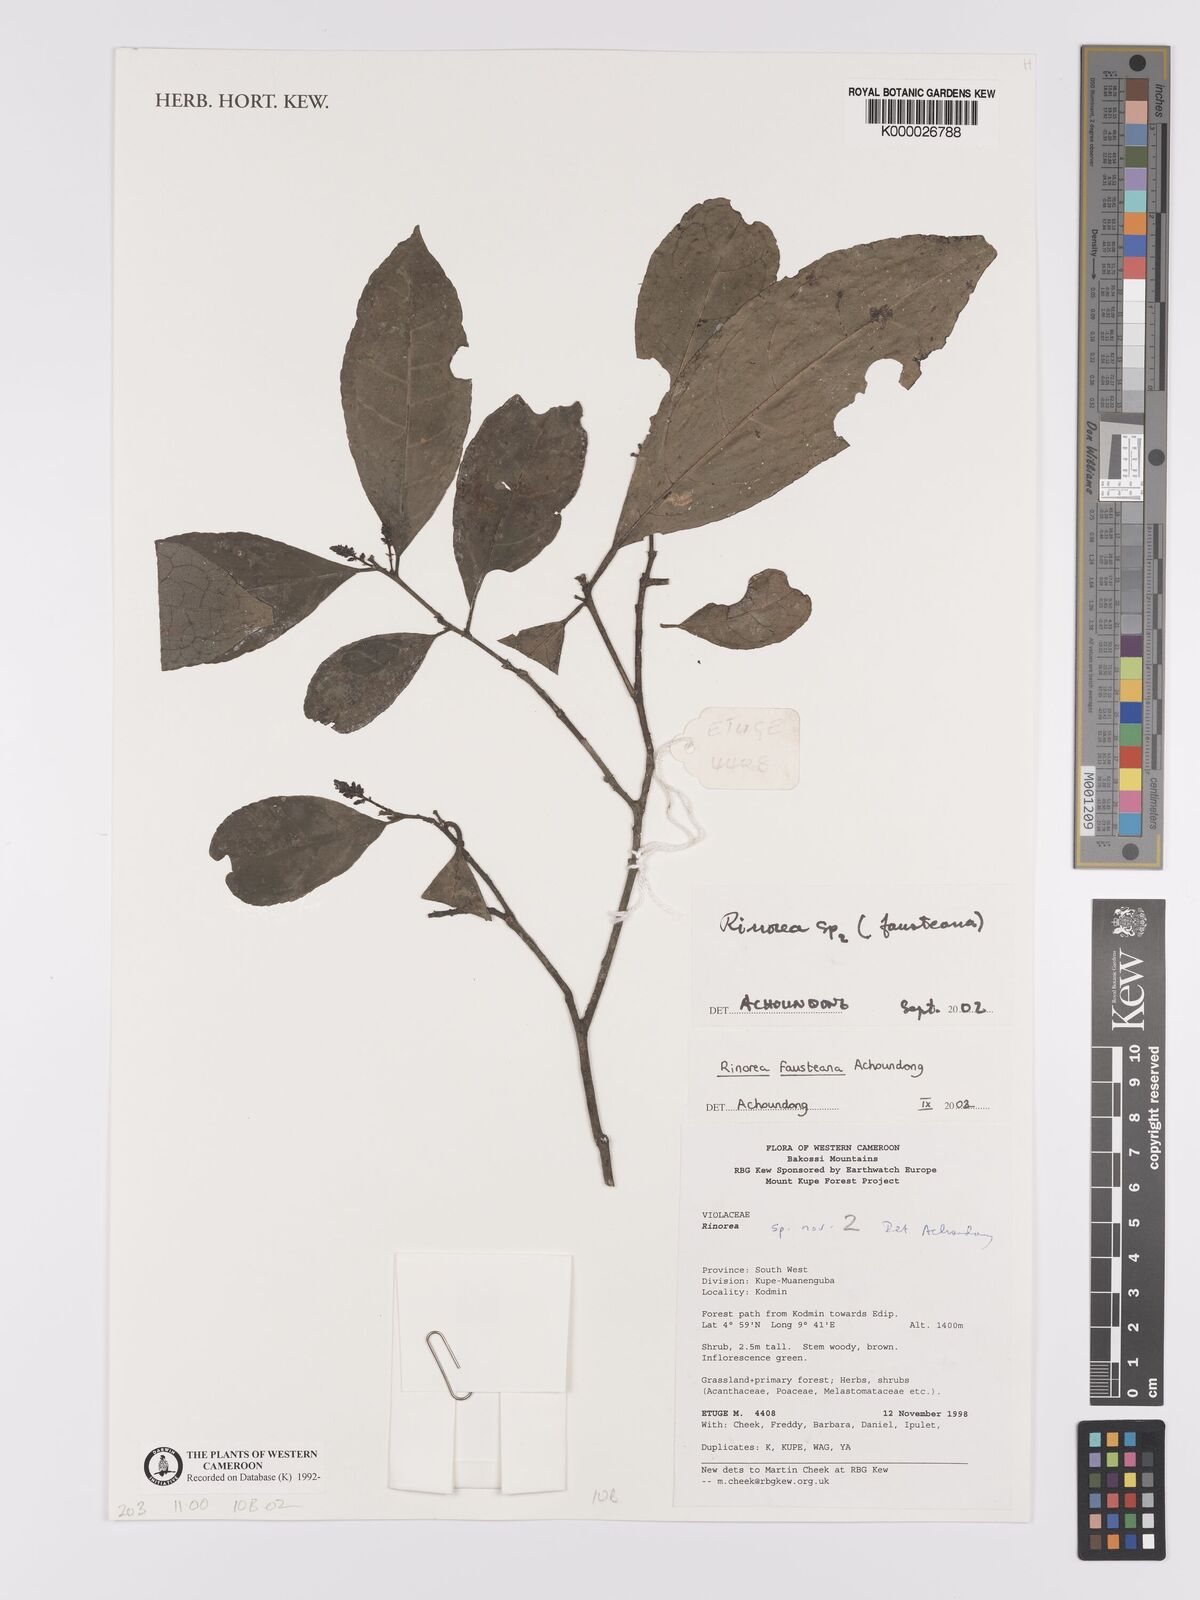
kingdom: Plantae
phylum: Tracheophyta
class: Magnoliopsida
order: Malpighiales
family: Violaceae
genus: Rinorea
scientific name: Rinorea fausteana
